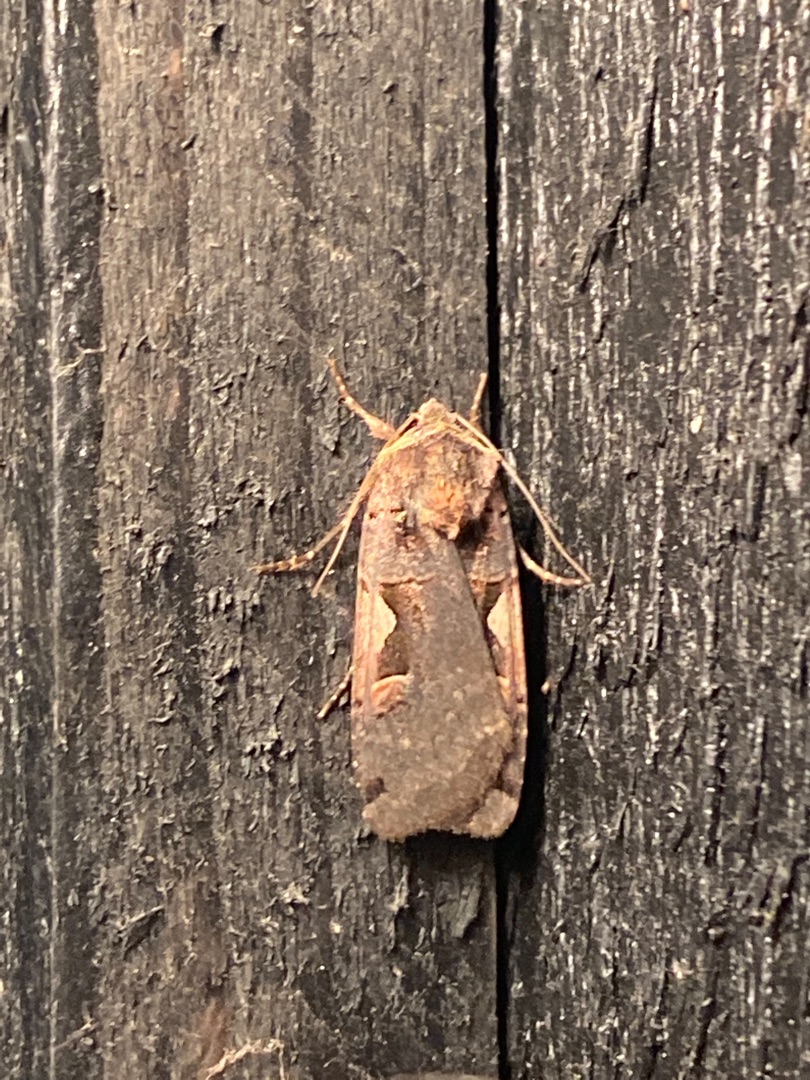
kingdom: Animalia
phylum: Arthropoda
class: Insecta
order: Lepidoptera
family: Noctuidae
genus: Xestia
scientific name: Xestia c-nigrum
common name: Det sorte c
